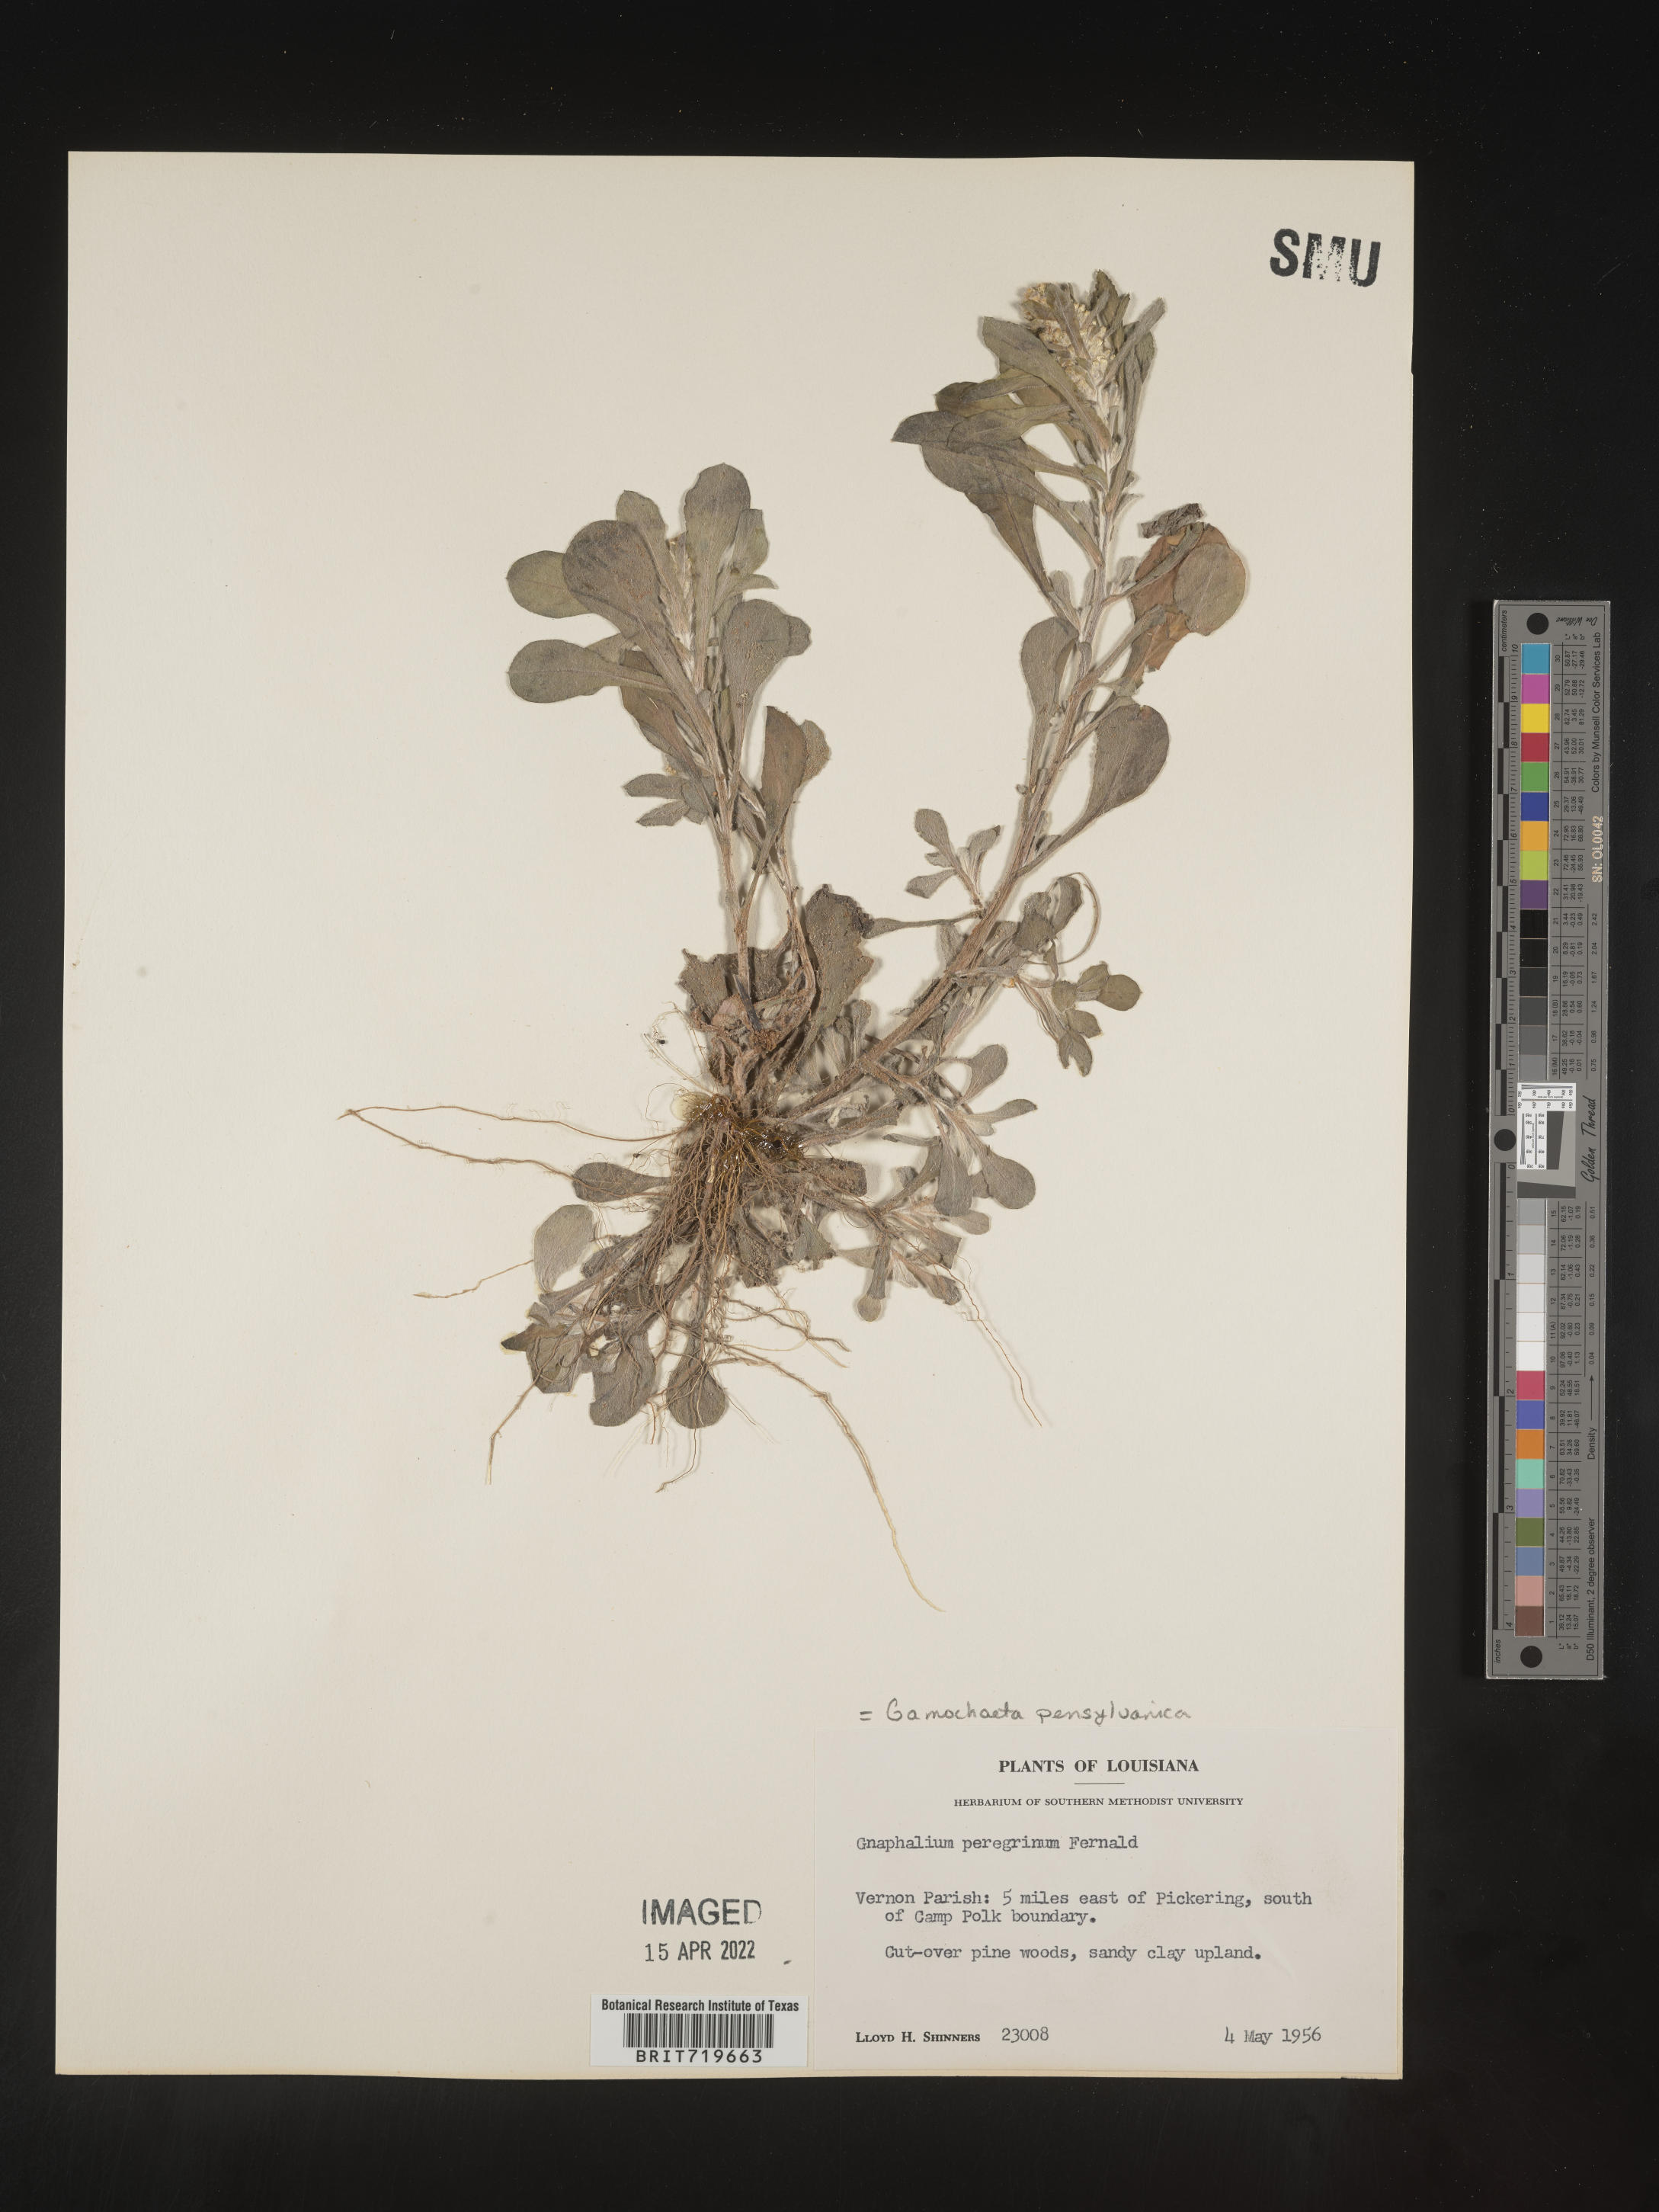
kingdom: Plantae
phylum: Tracheophyta
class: Magnoliopsida
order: Asterales
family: Asteraceae
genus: Gamochaeta
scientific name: Gamochaeta pensylvanica
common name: Pennsylvania everlasting
